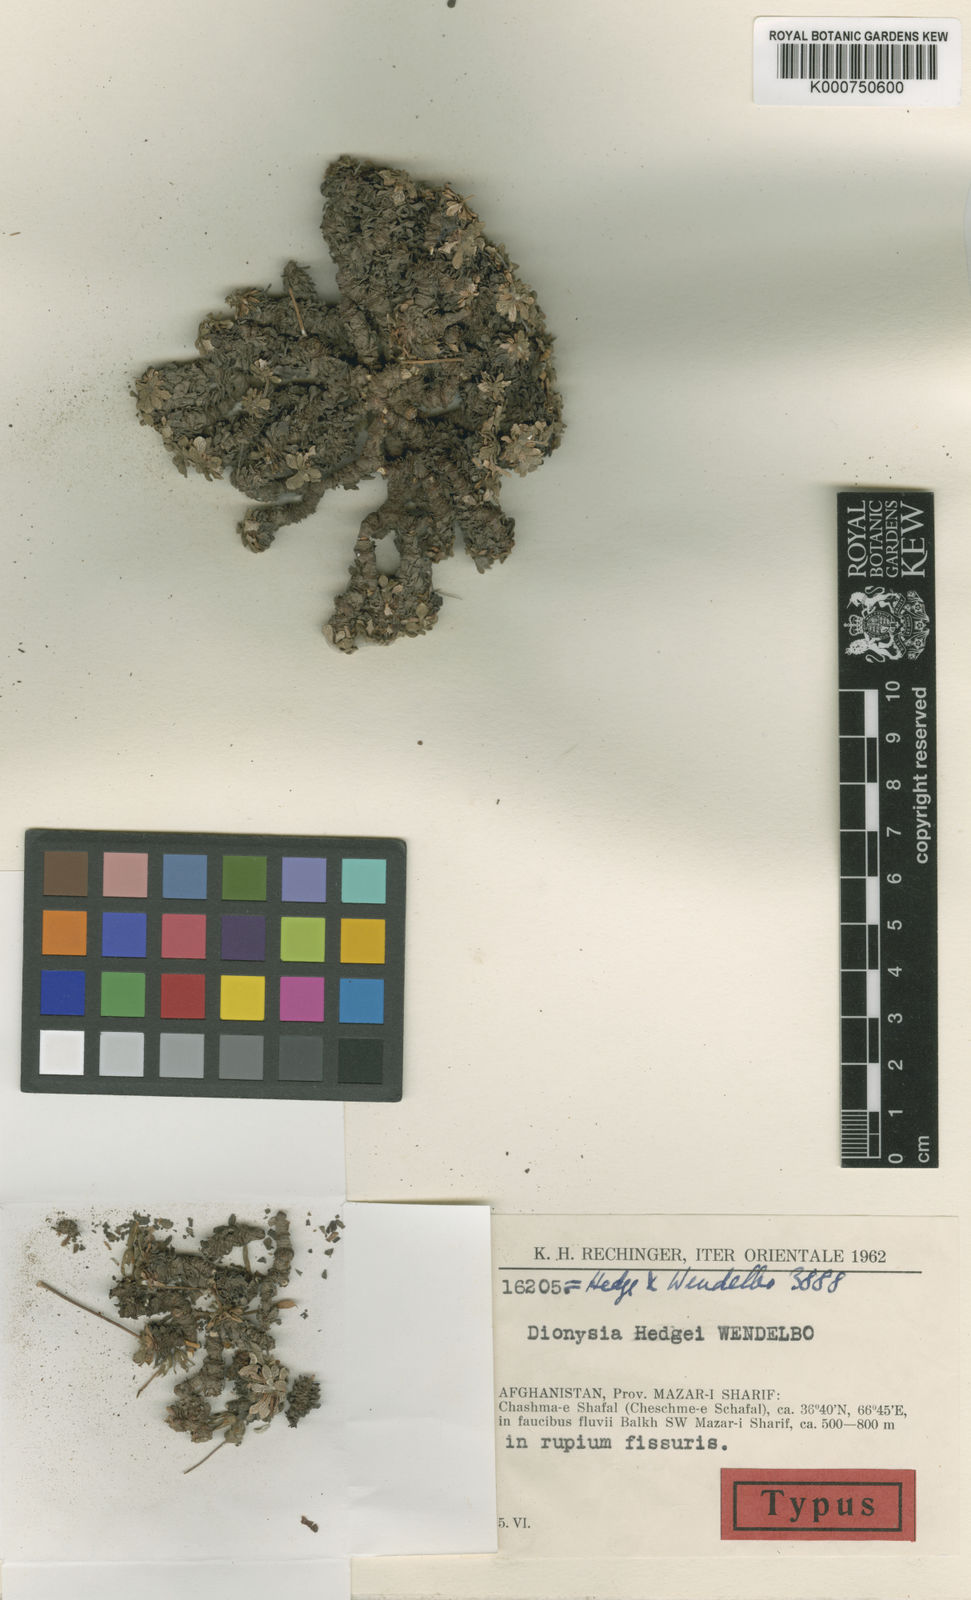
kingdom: Plantae
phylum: Tracheophyta
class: Magnoliopsida
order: Ericales
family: Primulaceae
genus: Dionysia
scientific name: Dionysia hedgei
